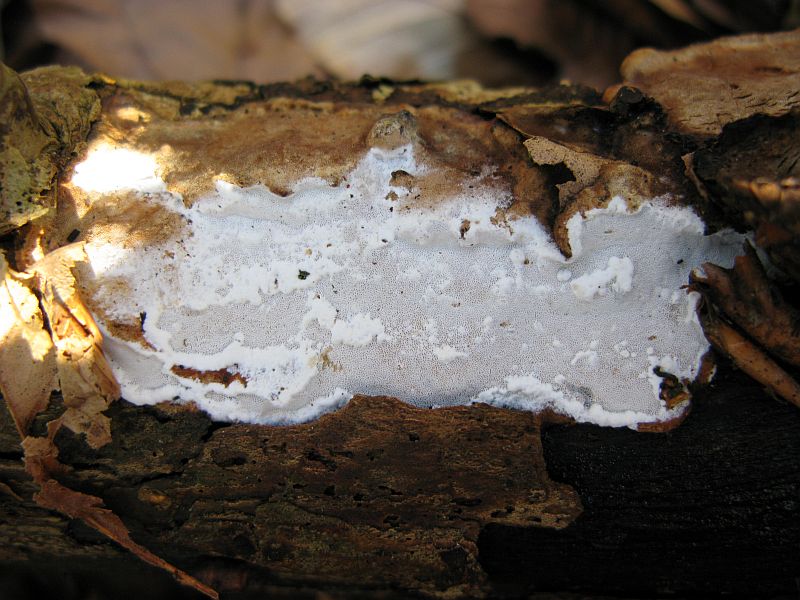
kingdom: Fungi
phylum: Basidiomycota
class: Agaricomycetes
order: Polyporales
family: Incrustoporiaceae
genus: Skeletocutis
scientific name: Skeletocutis nemoralis
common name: stor krystalporesvamp
